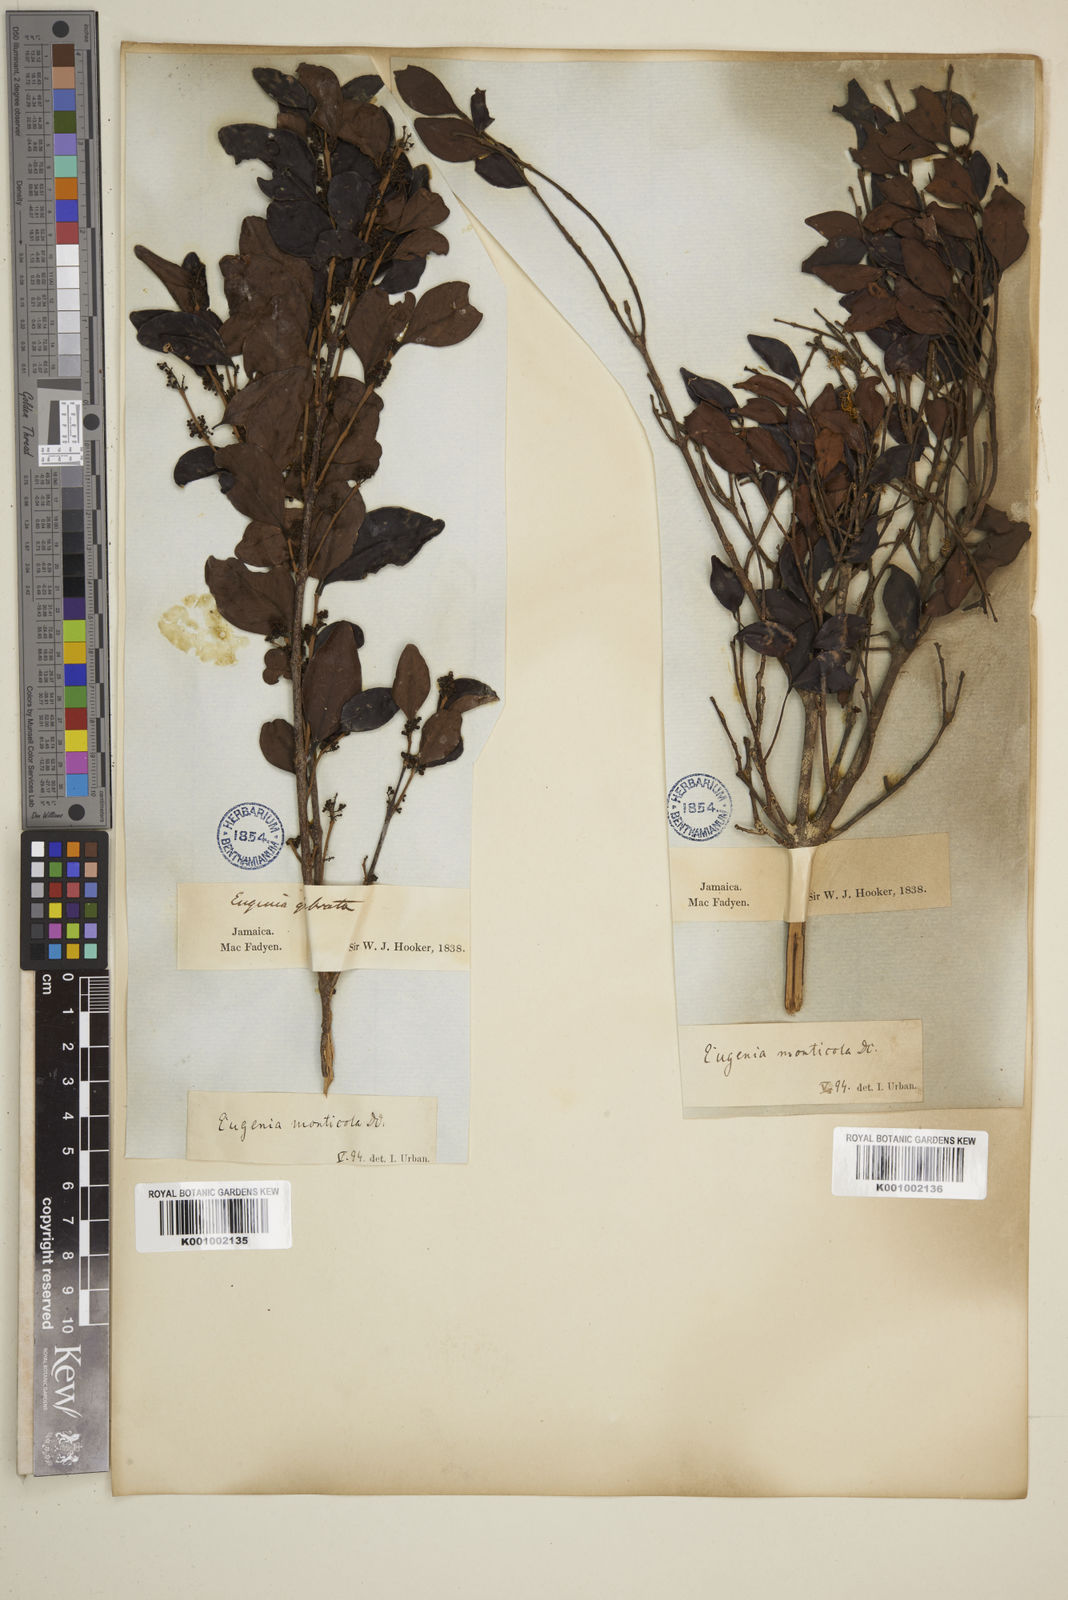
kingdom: Plantae
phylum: Tracheophyta
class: Magnoliopsida
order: Myrtales
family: Myrtaceae
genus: Eugenia
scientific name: Eugenia monticola
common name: Birds berry
